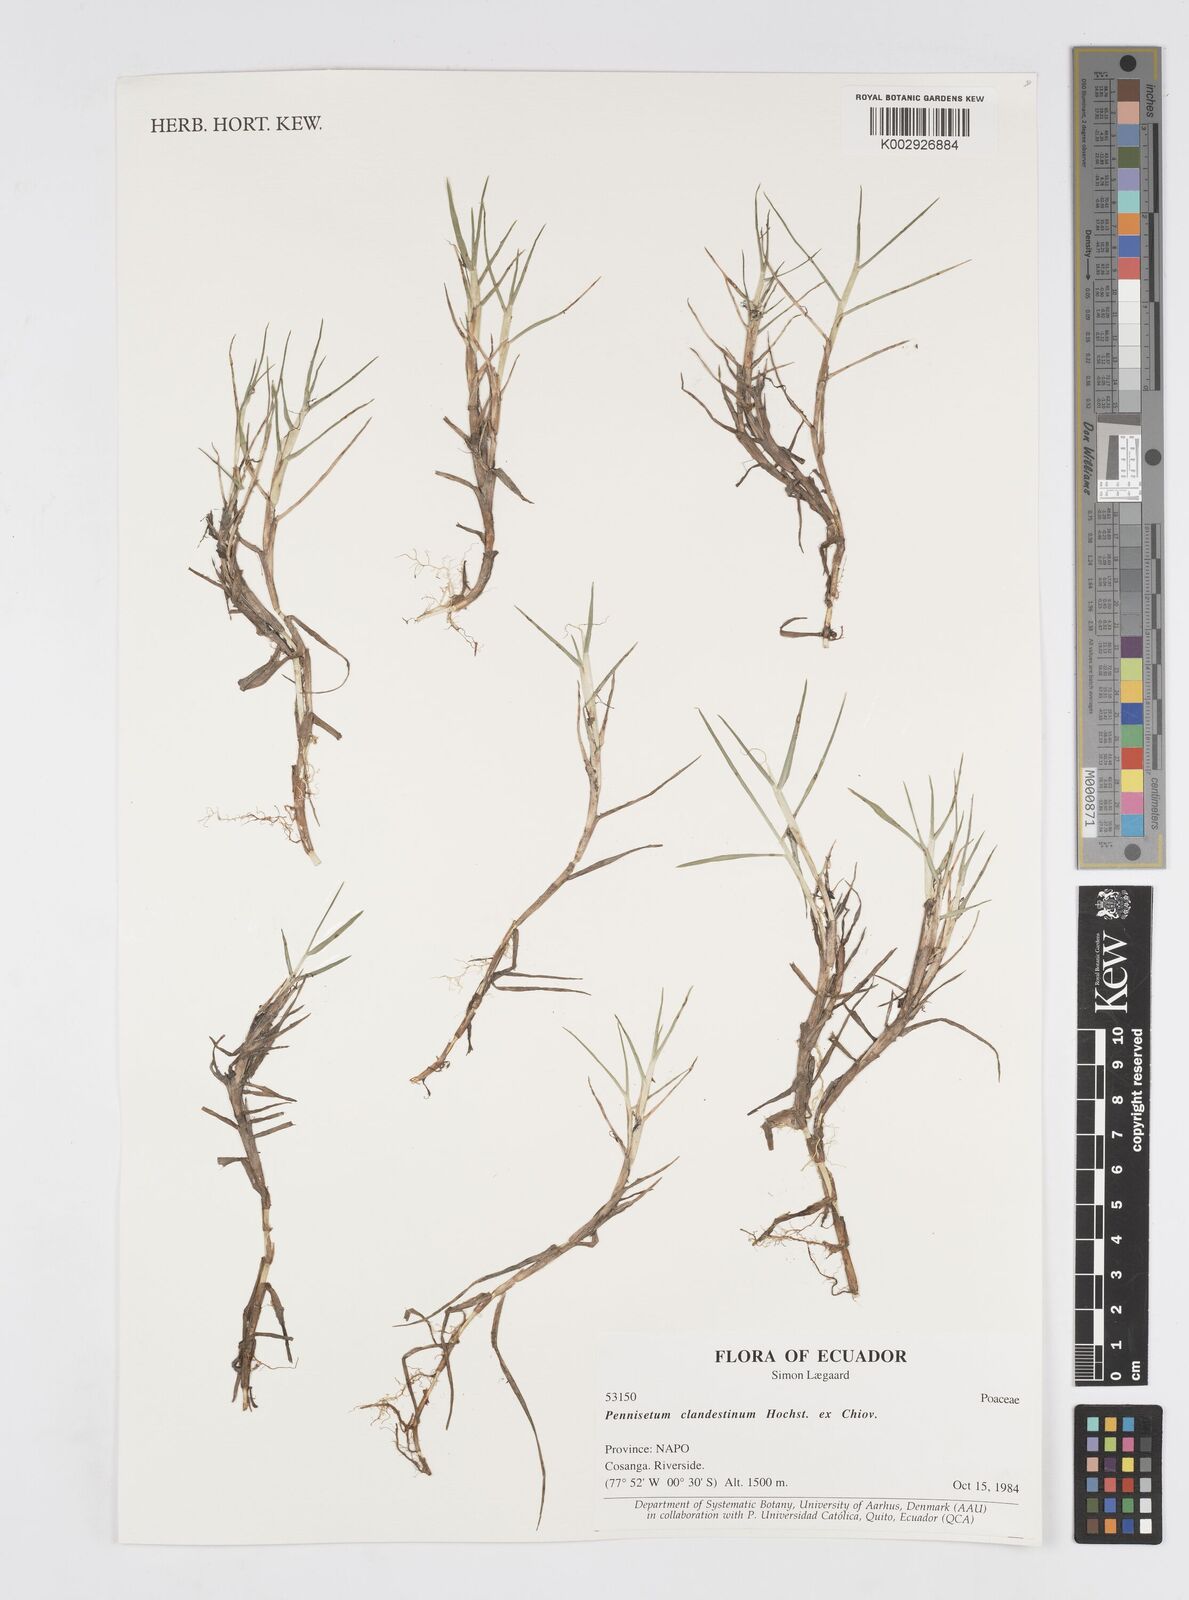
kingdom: Plantae
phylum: Tracheophyta
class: Liliopsida
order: Poales
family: Poaceae
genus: Cenchrus
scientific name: Cenchrus clandestinus
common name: Kikuyugrass
